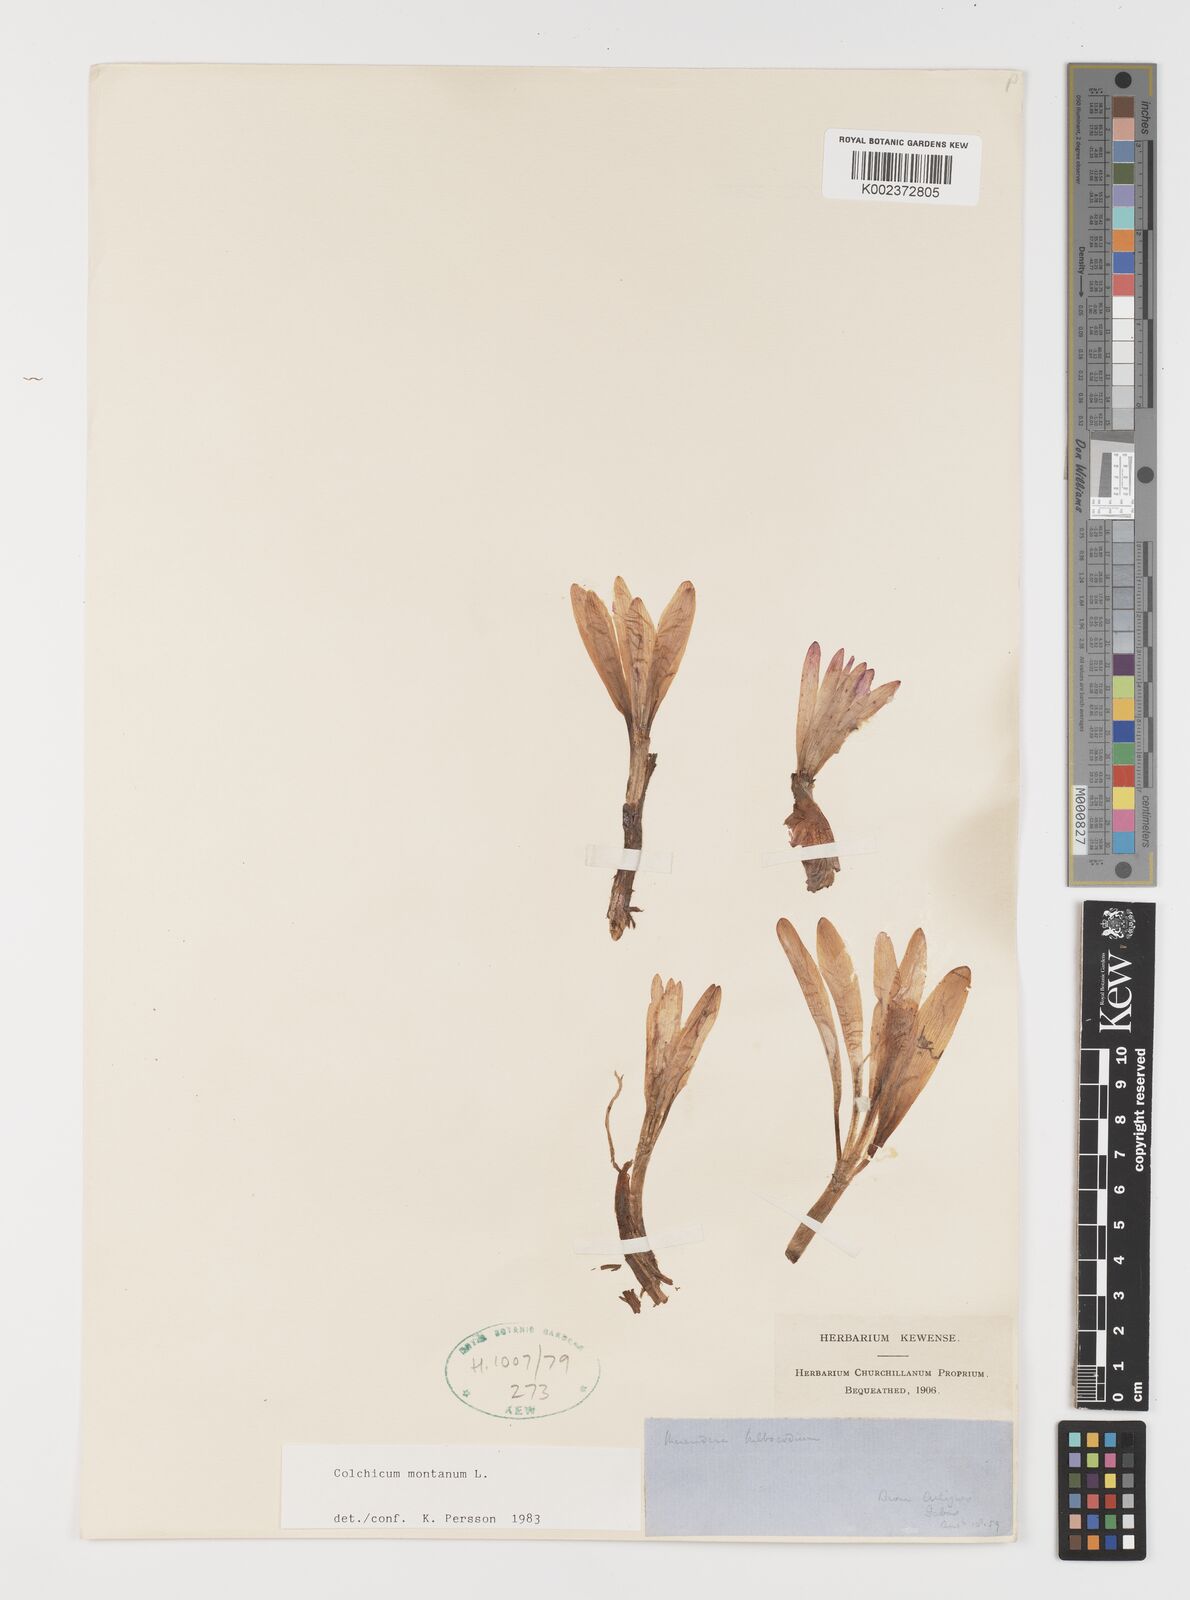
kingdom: Plantae
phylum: Tracheophyta
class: Liliopsida
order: Liliales
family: Colchicaceae
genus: Colchicum
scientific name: Colchicum montanum
